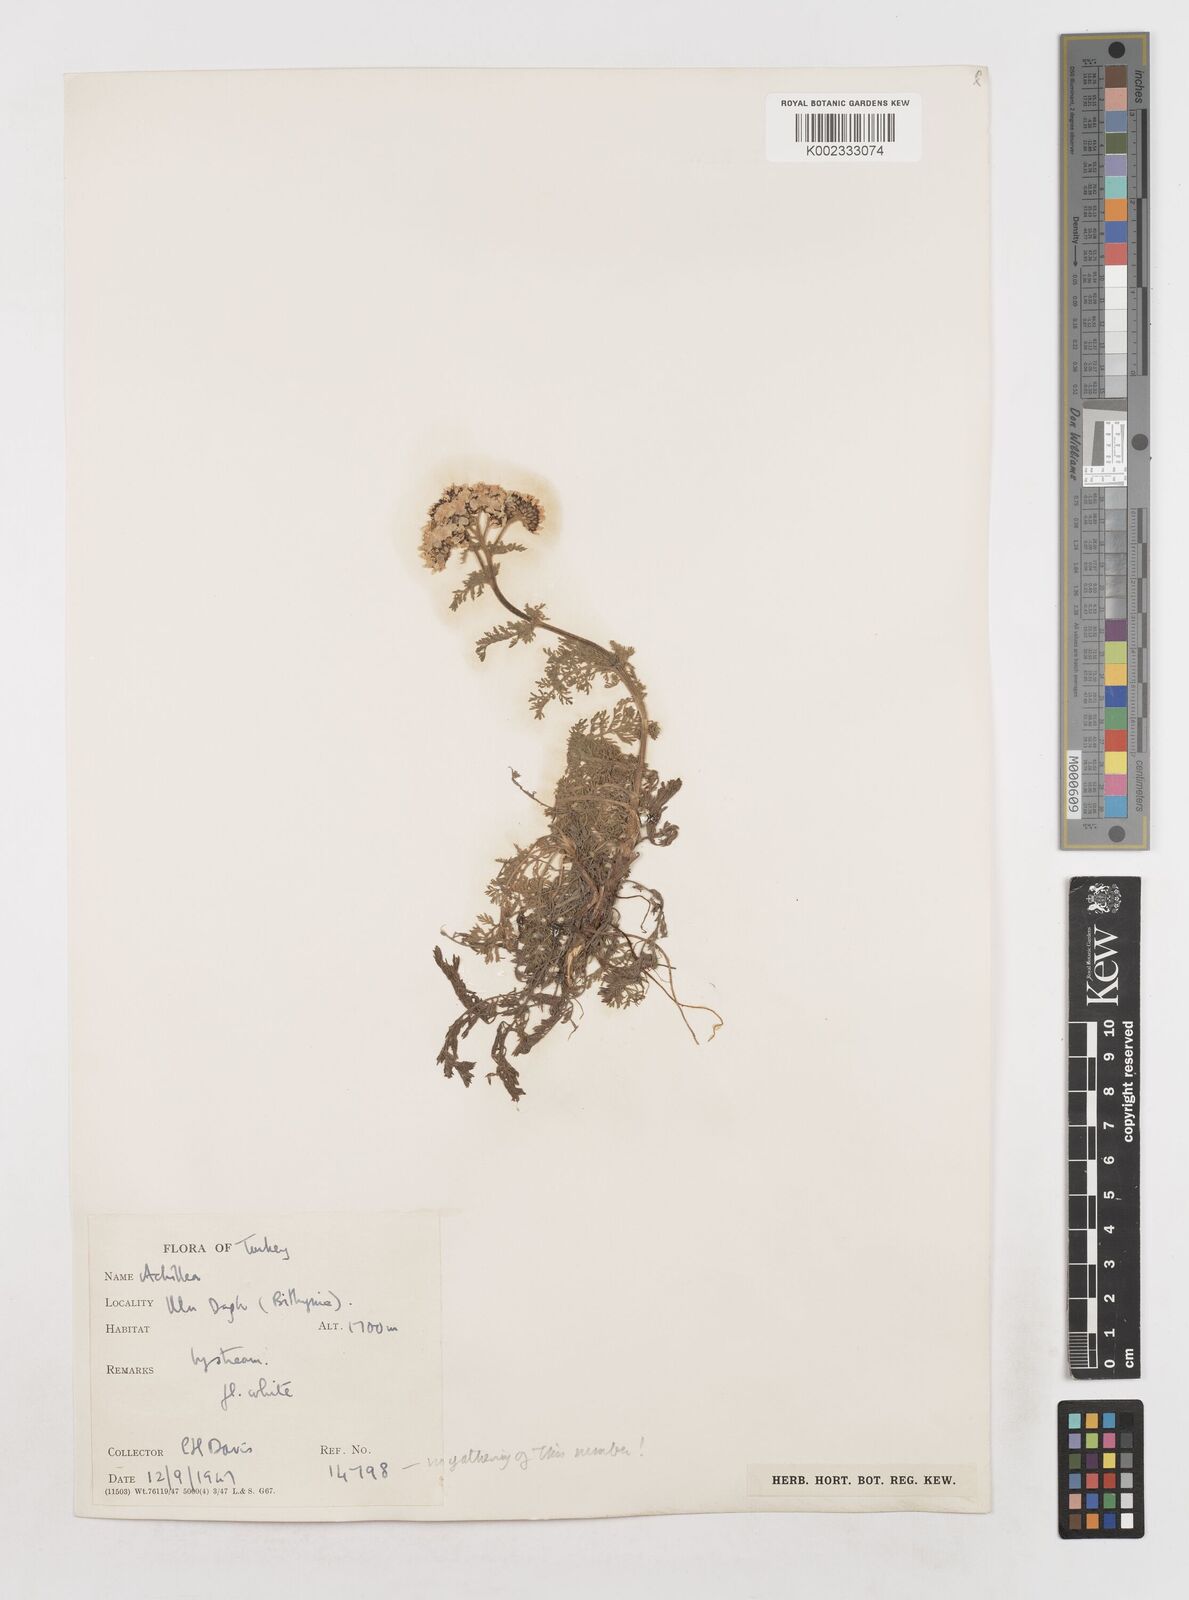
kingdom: Plantae
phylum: Tracheophyta
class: Magnoliopsida
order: Asterales
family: Asteraceae
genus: Achillea
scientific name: Achillea
